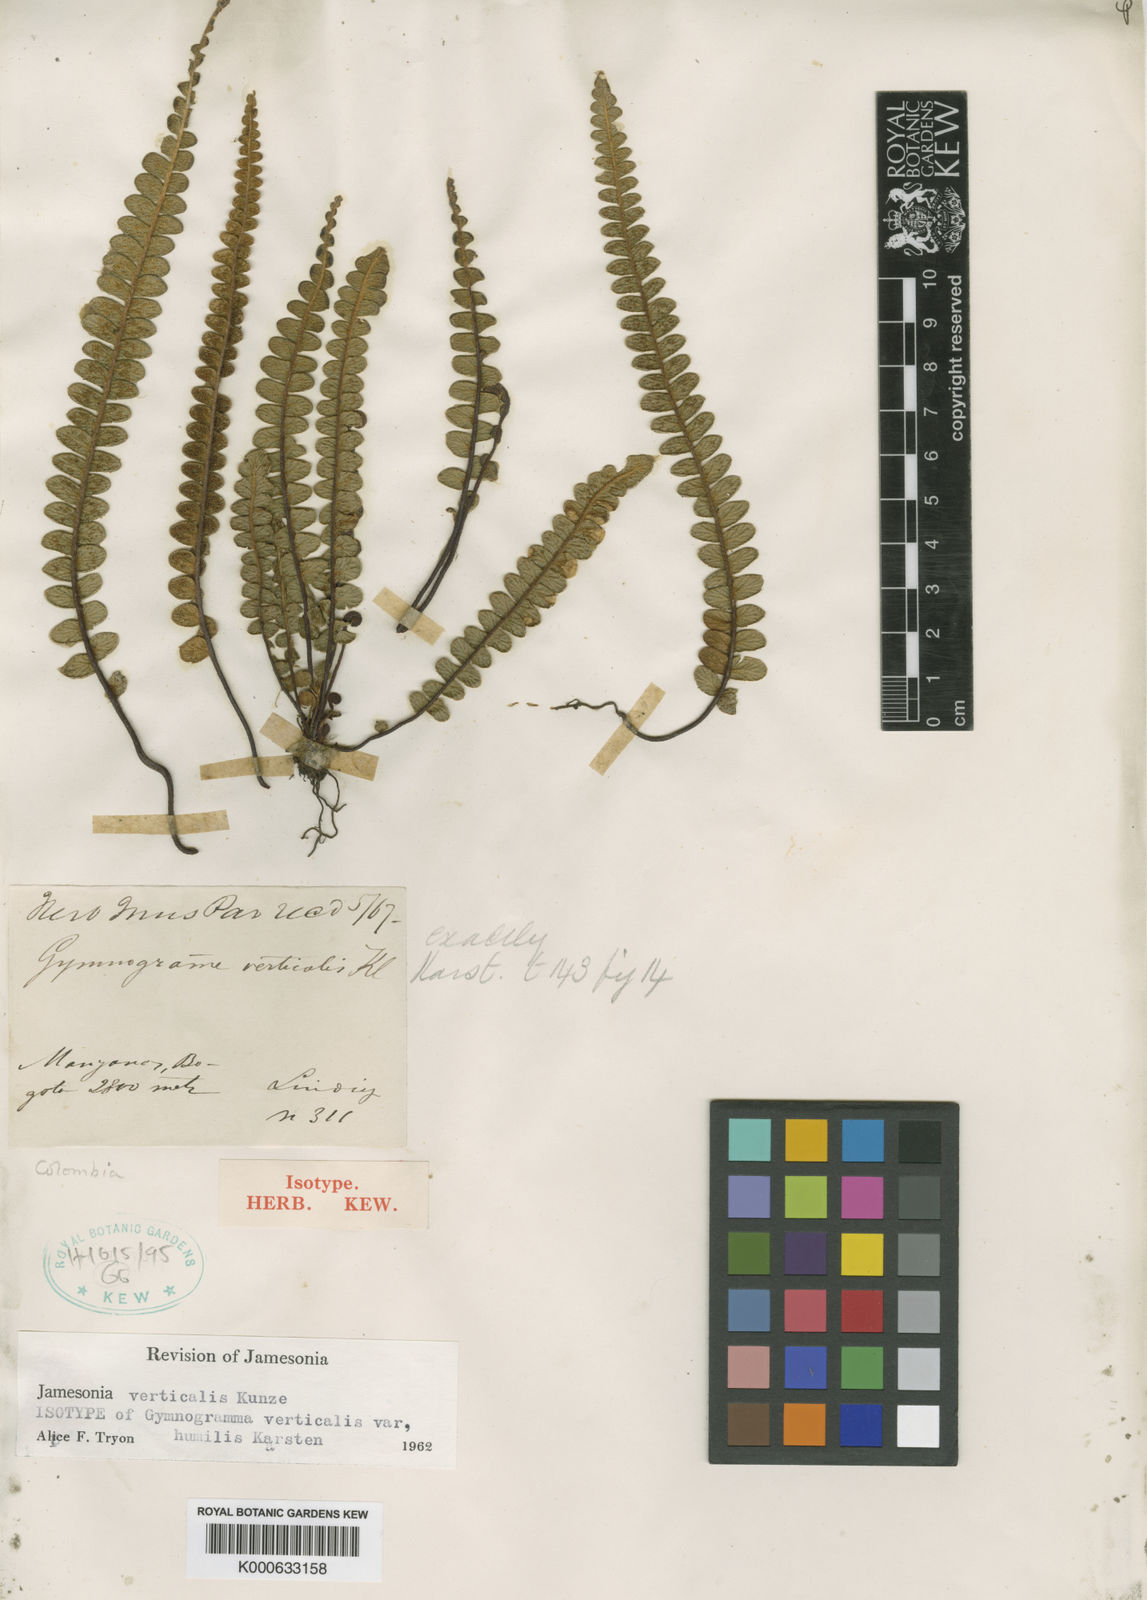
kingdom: Plantae
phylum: Tracheophyta
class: Polypodiopsida
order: Polypodiales
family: Pteridaceae
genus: Jamesonia
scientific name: Jamesonia verticalis
